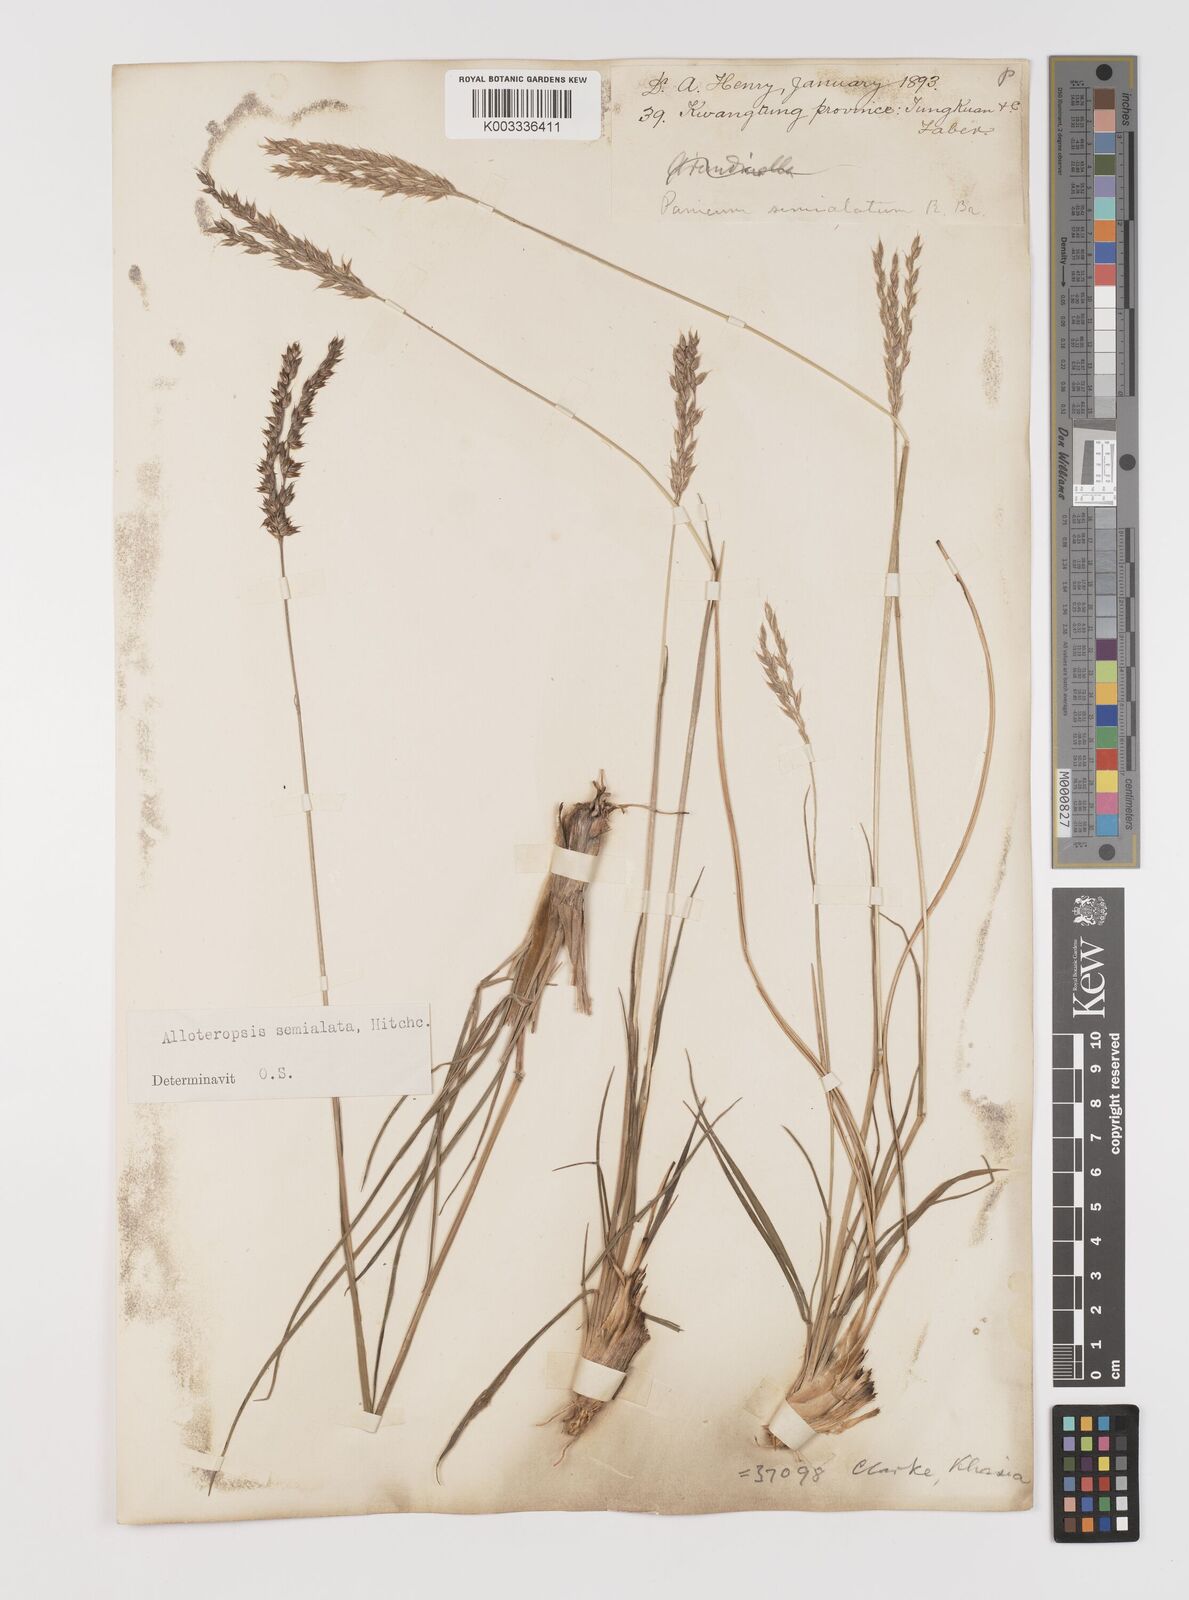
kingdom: Plantae
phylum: Tracheophyta
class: Liliopsida
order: Poales
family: Poaceae
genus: Alloteropsis
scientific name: Alloteropsis semialata
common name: Cockatoo grass
